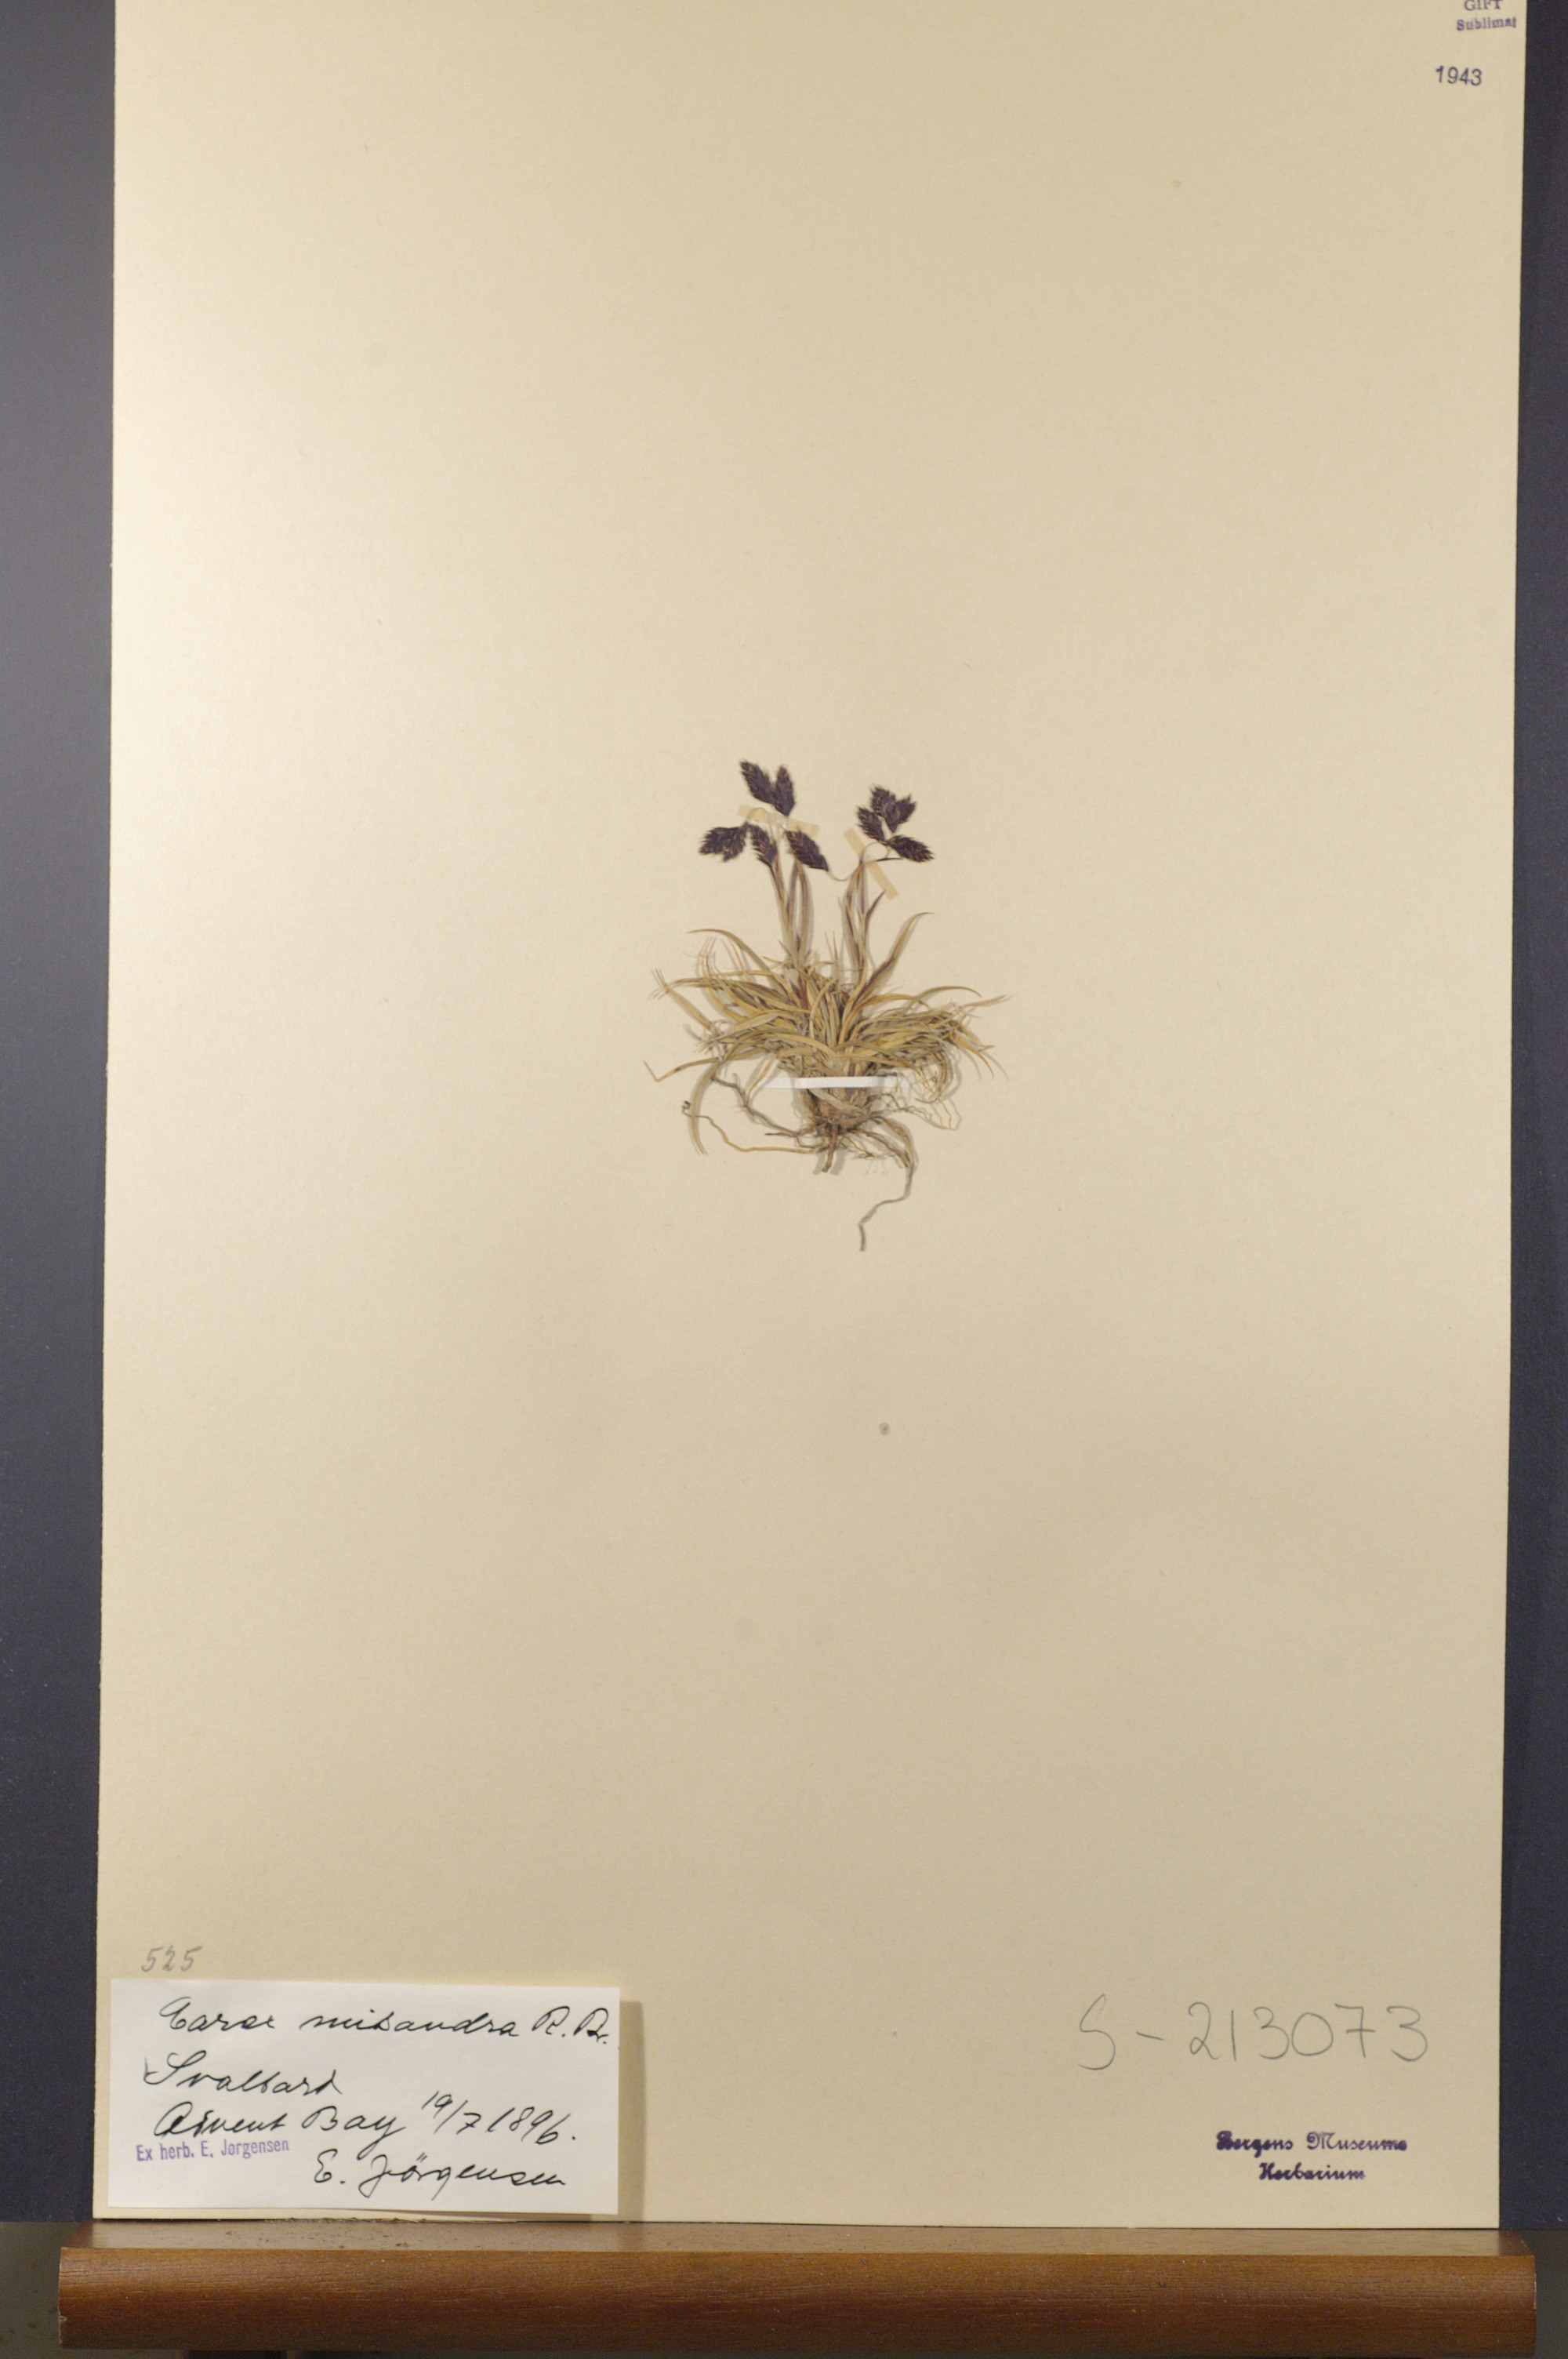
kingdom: Plantae
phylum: Tracheophyta
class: Liliopsida
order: Poales
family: Cyperaceae
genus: Carex
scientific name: Carex fuliginosa
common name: Few-flowered sedge
